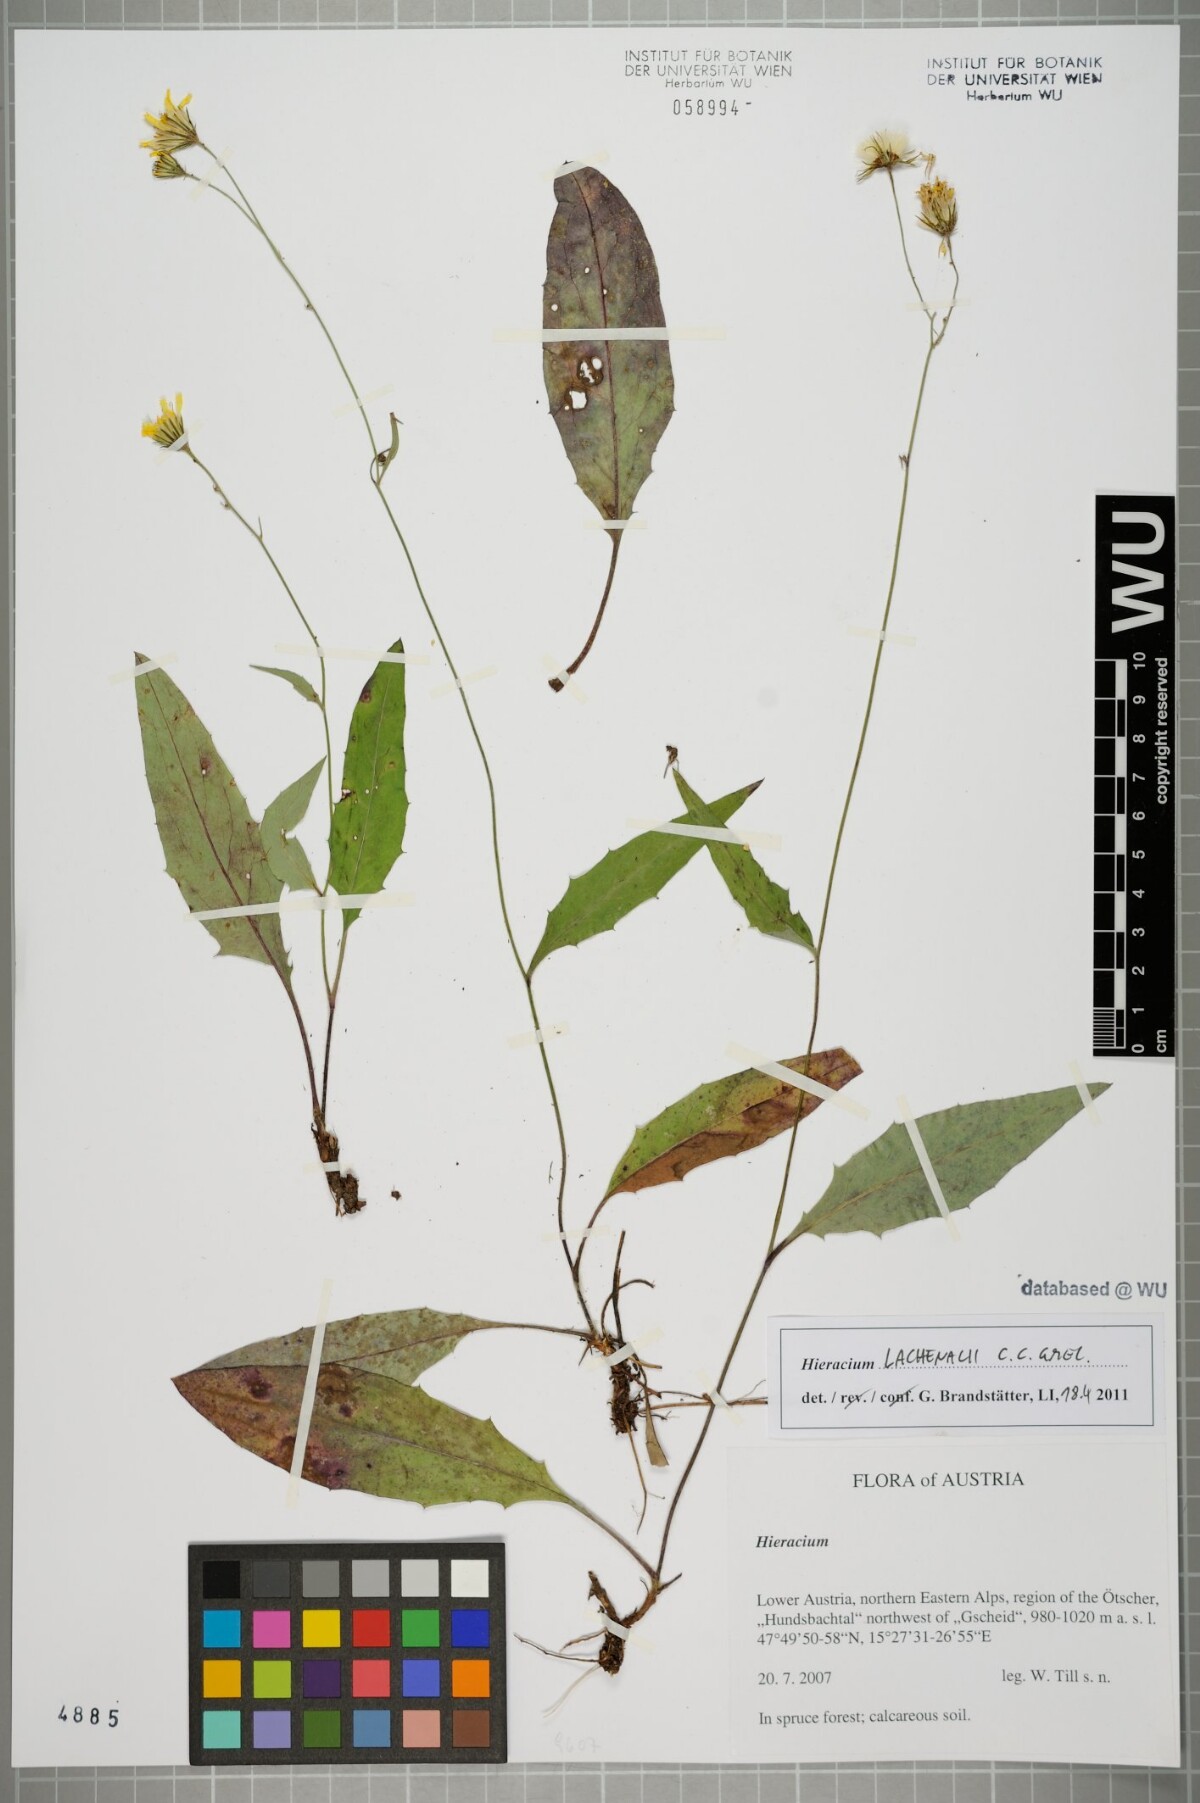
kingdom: Plantae
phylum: Tracheophyta
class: Magnoliopsida
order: Asterales
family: Asteraceae
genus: Hieracium
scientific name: Hieracium lachenalii
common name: Common hawkweed
